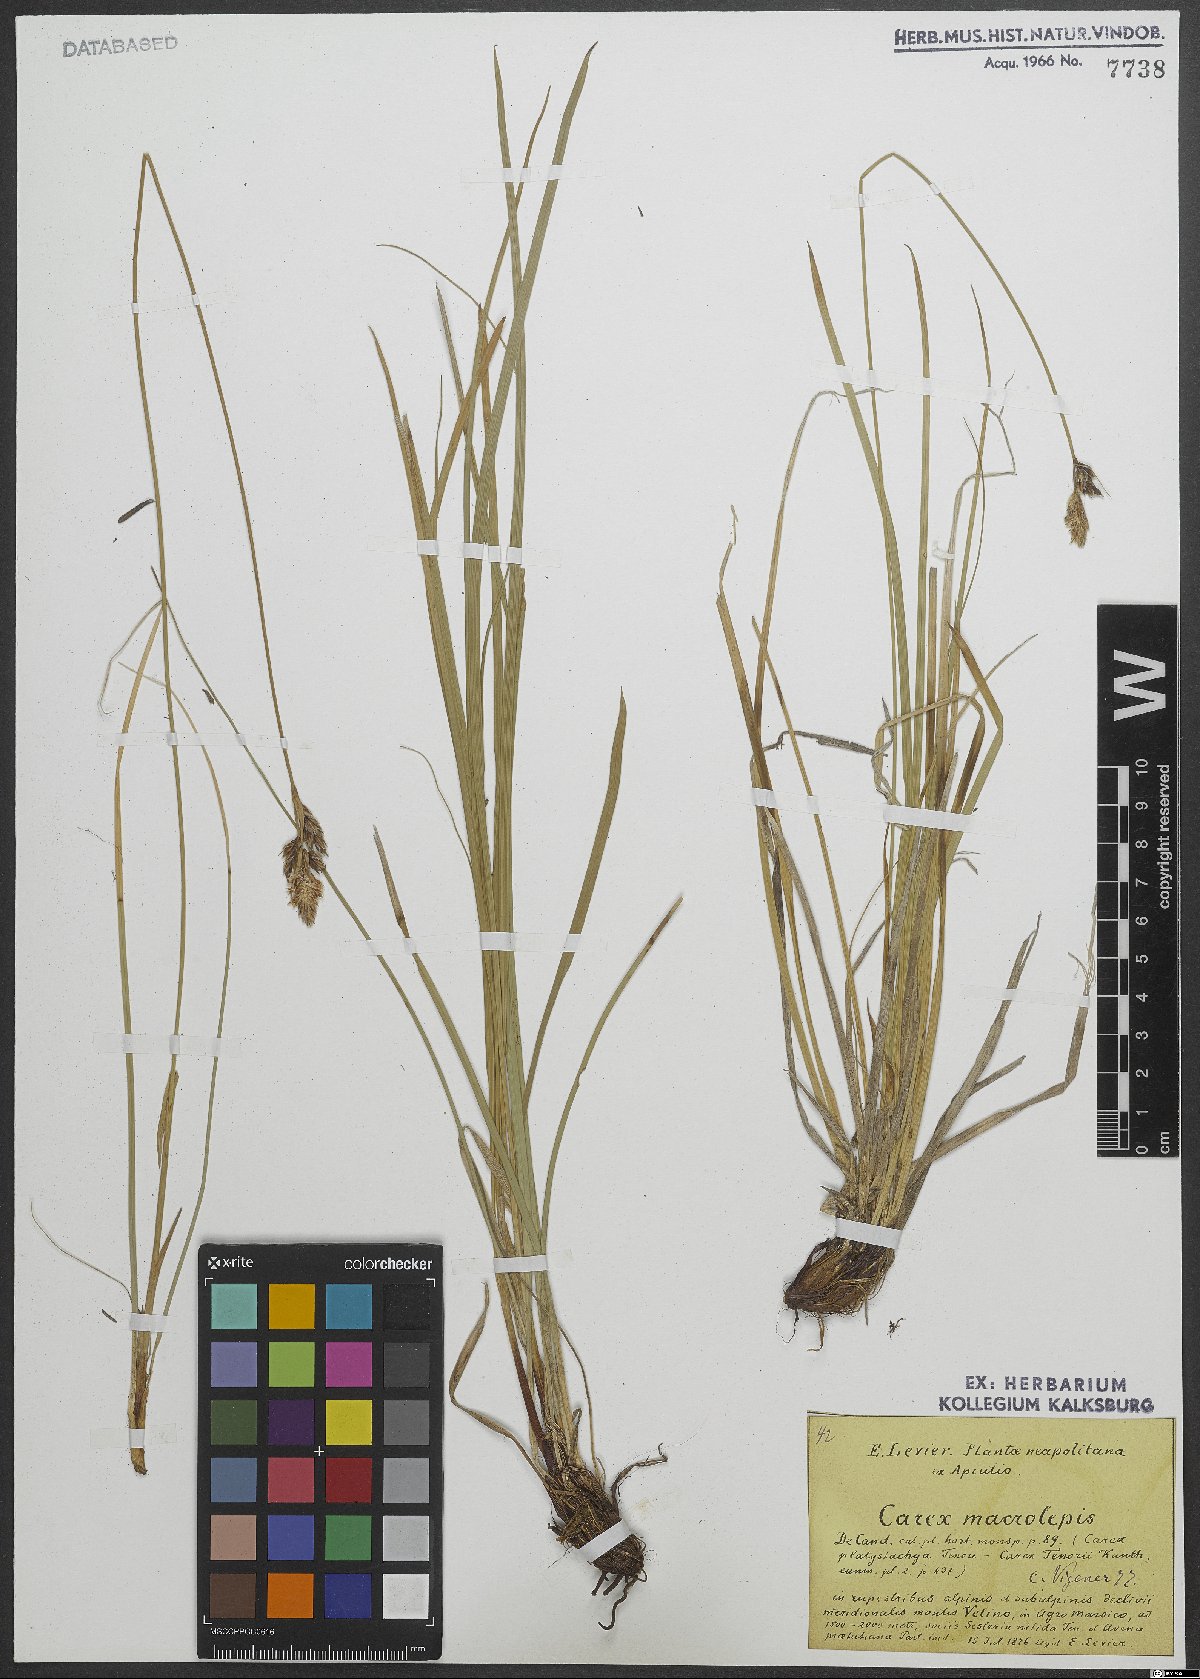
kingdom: Plantae
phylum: Tracheophyta
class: Liliopsida
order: Poales
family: Cyperaceae
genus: Carex
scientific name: Carex macrolepis
